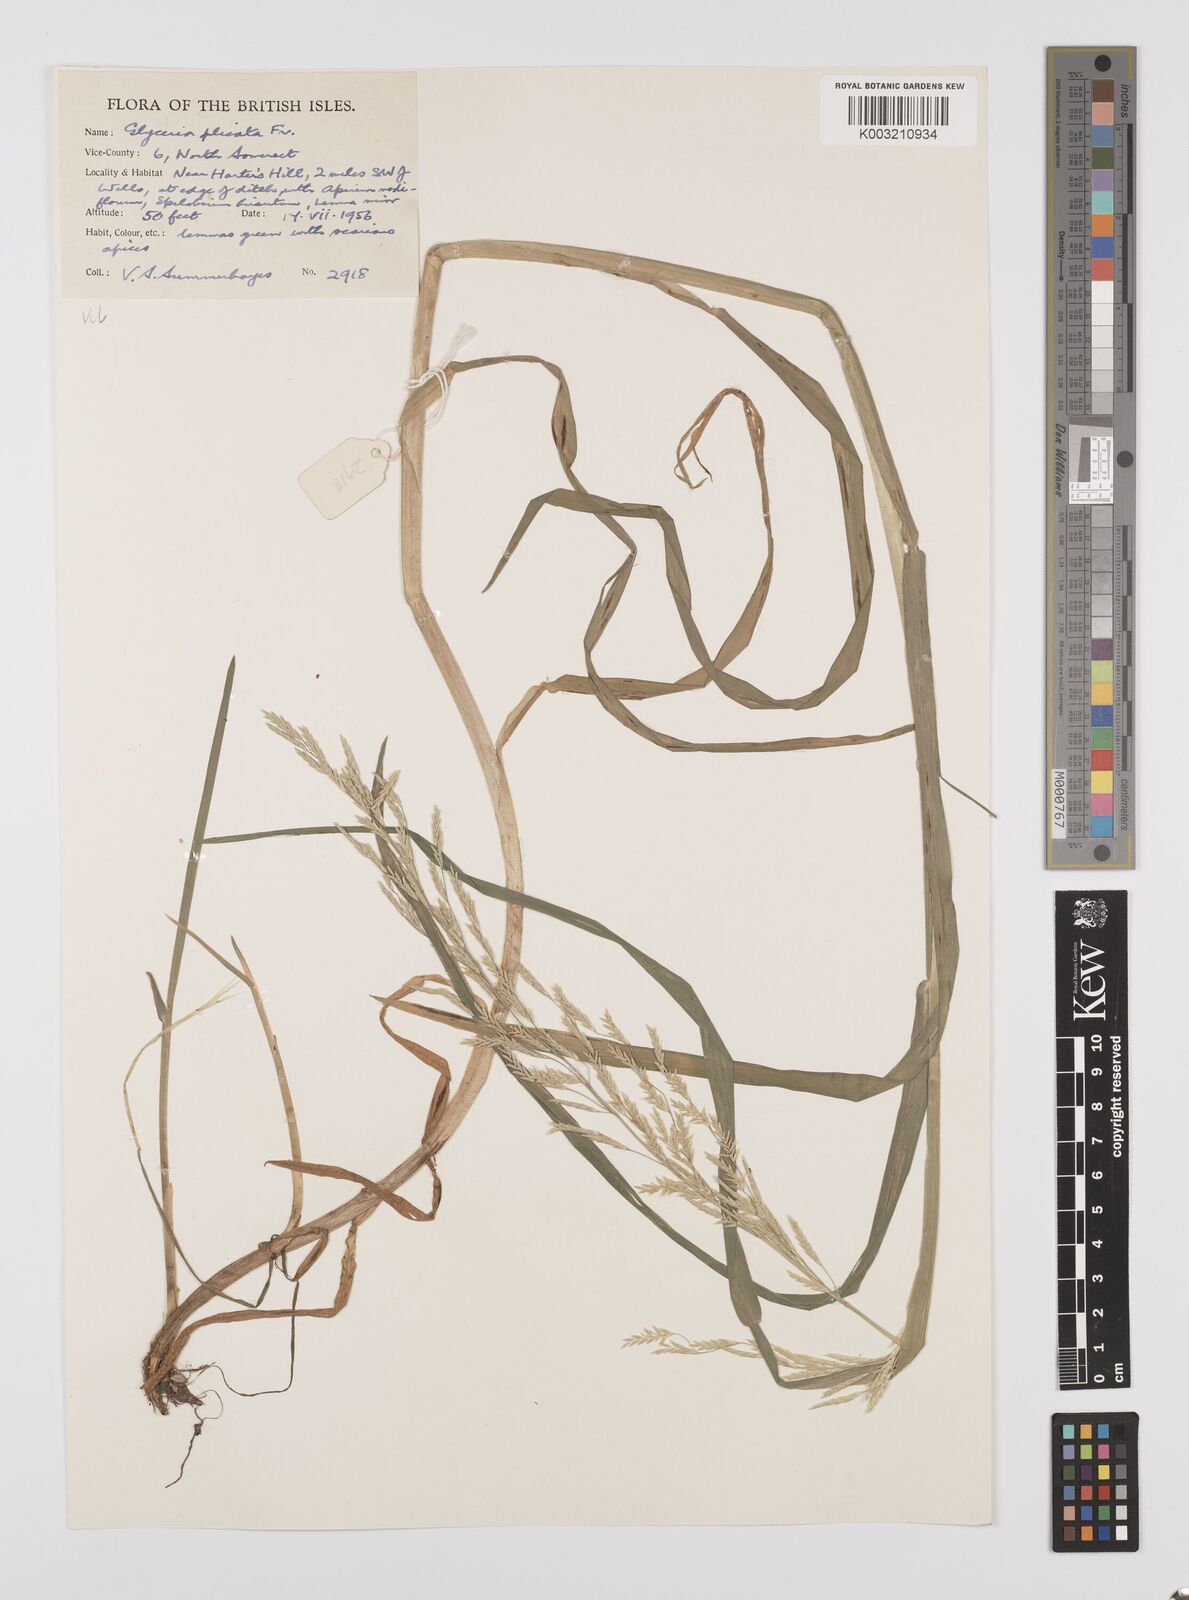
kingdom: Plantae
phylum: Tracheophyta
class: Liliopsida
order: Poales
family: Poaceae
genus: Glyceria
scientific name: Glyceria notata
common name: Plicate sweet-grass
